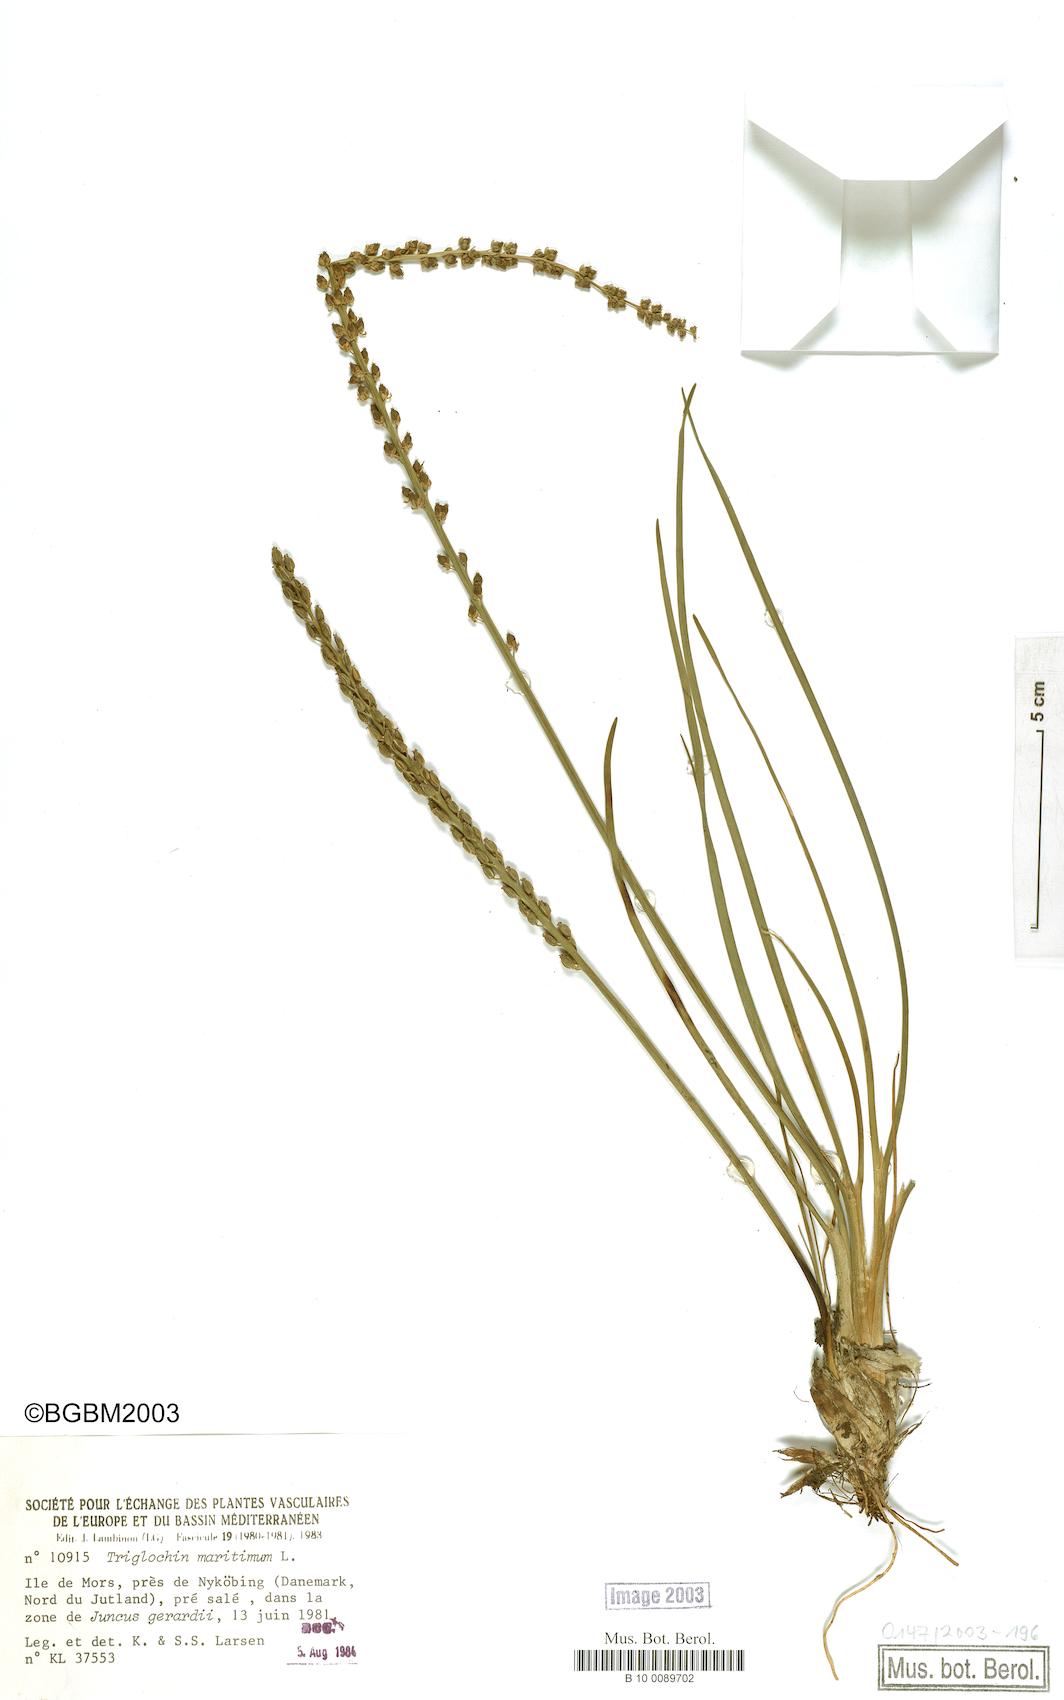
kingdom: Plantae
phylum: Tracheophyta
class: Liliopsida
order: Alismatales
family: Juncaginaceae
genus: Triglochin
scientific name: Triglochin maritima
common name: Sea arrowgrass
